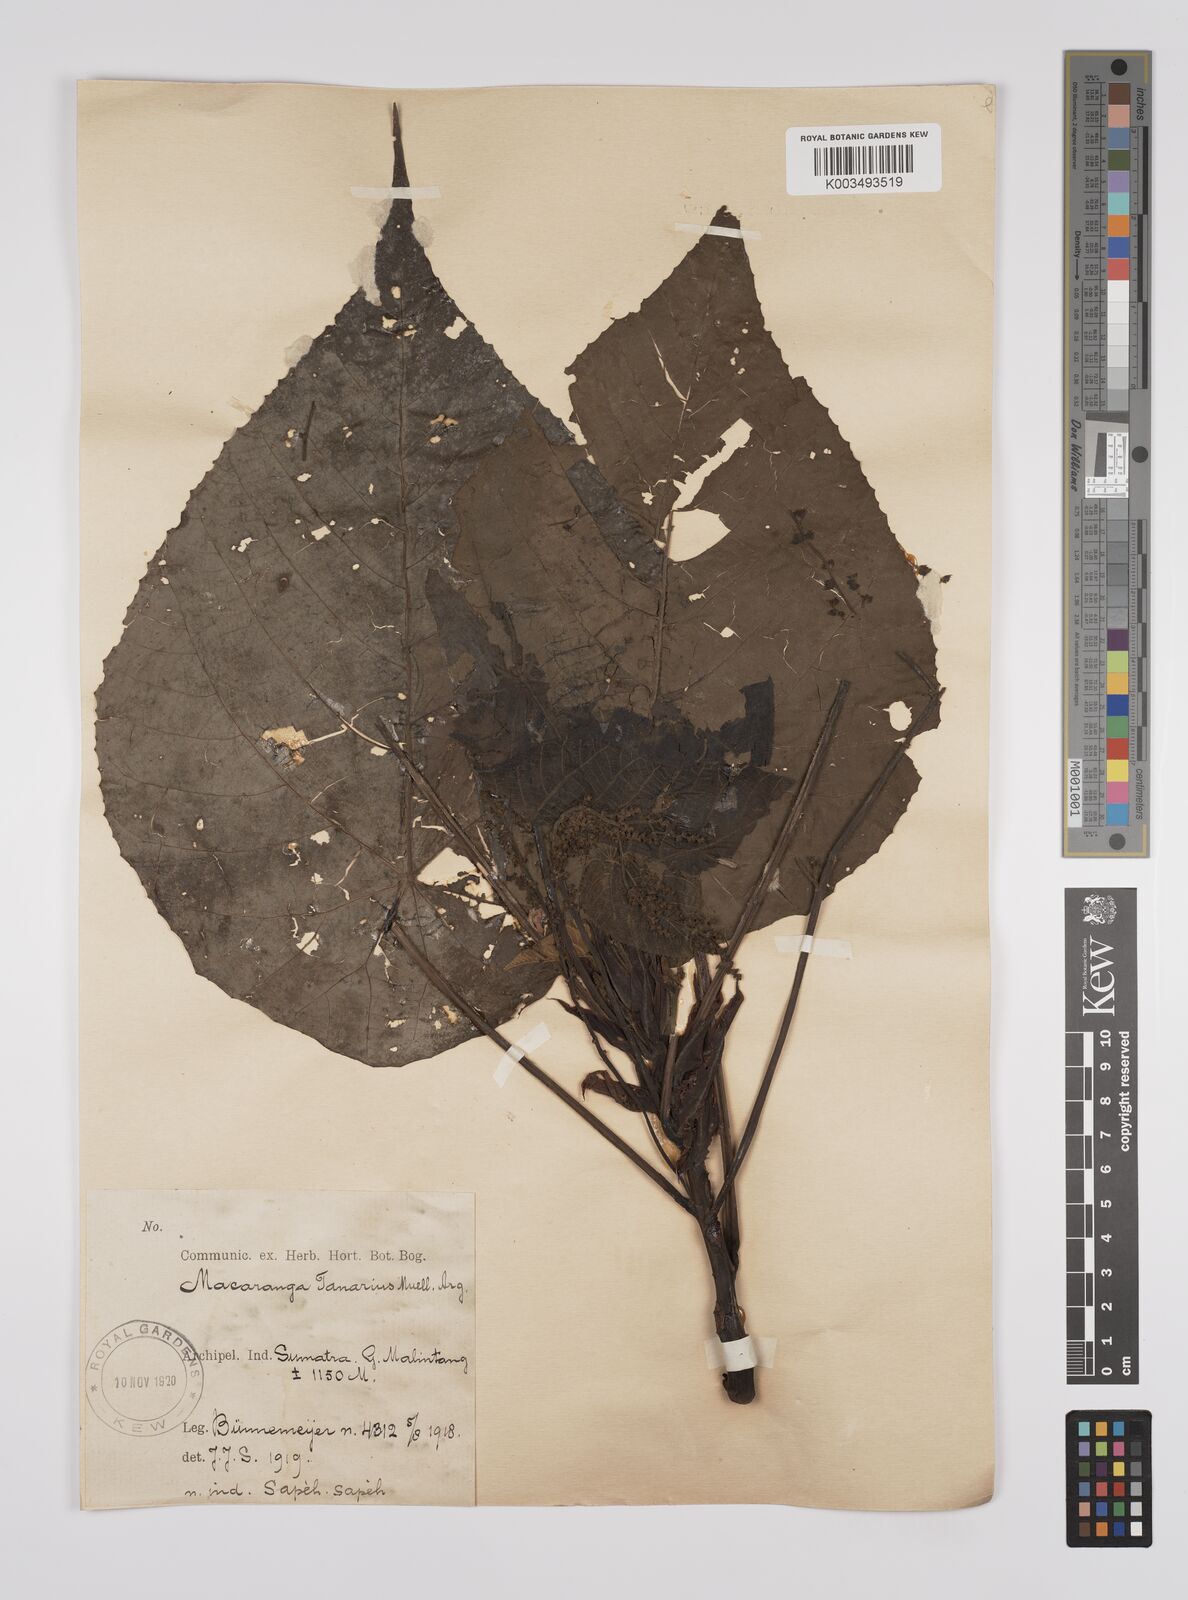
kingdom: Plantae
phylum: Tracheophyta
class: Magnoliopsida
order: Malpighiales
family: Euphorbiaceae
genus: Macaranga
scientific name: Macaranga tanarius
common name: Parasol leaf tree
